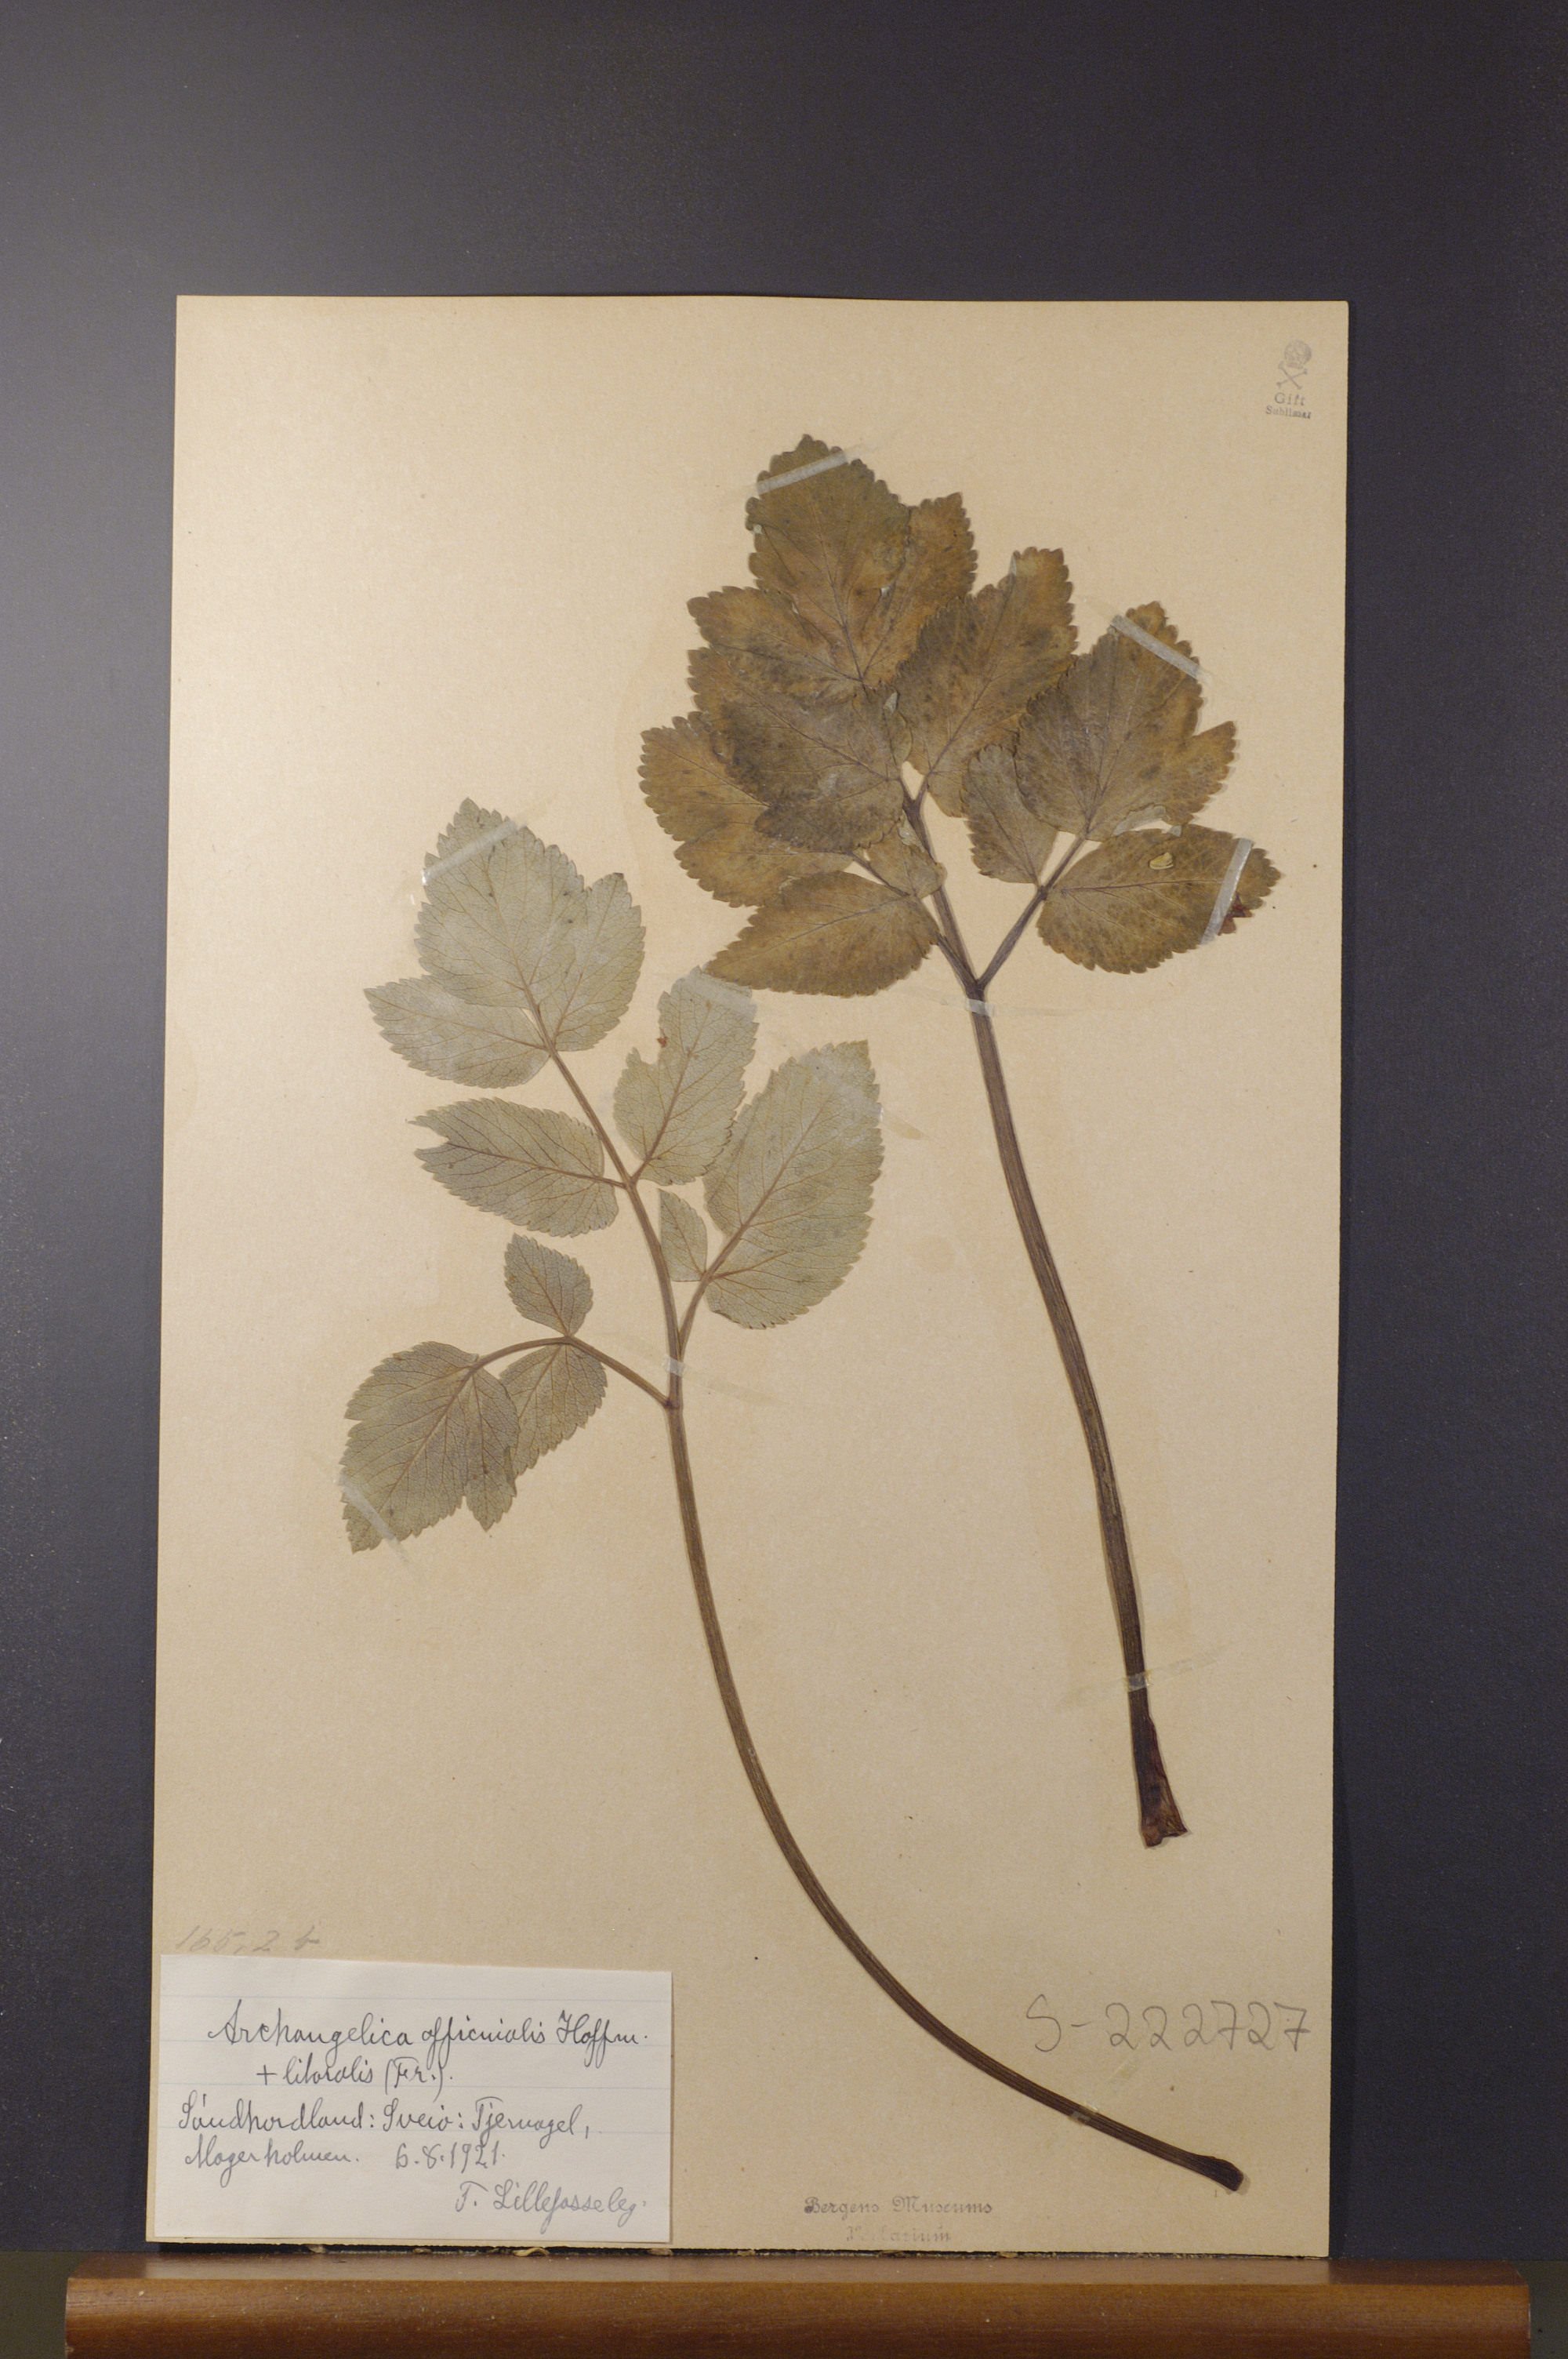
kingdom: Plantae
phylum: Tracheophyta
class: Magnoliopsida
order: Apiales
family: Apiaceae
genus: Angelica
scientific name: Angelica archangelica
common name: Garden angelica
